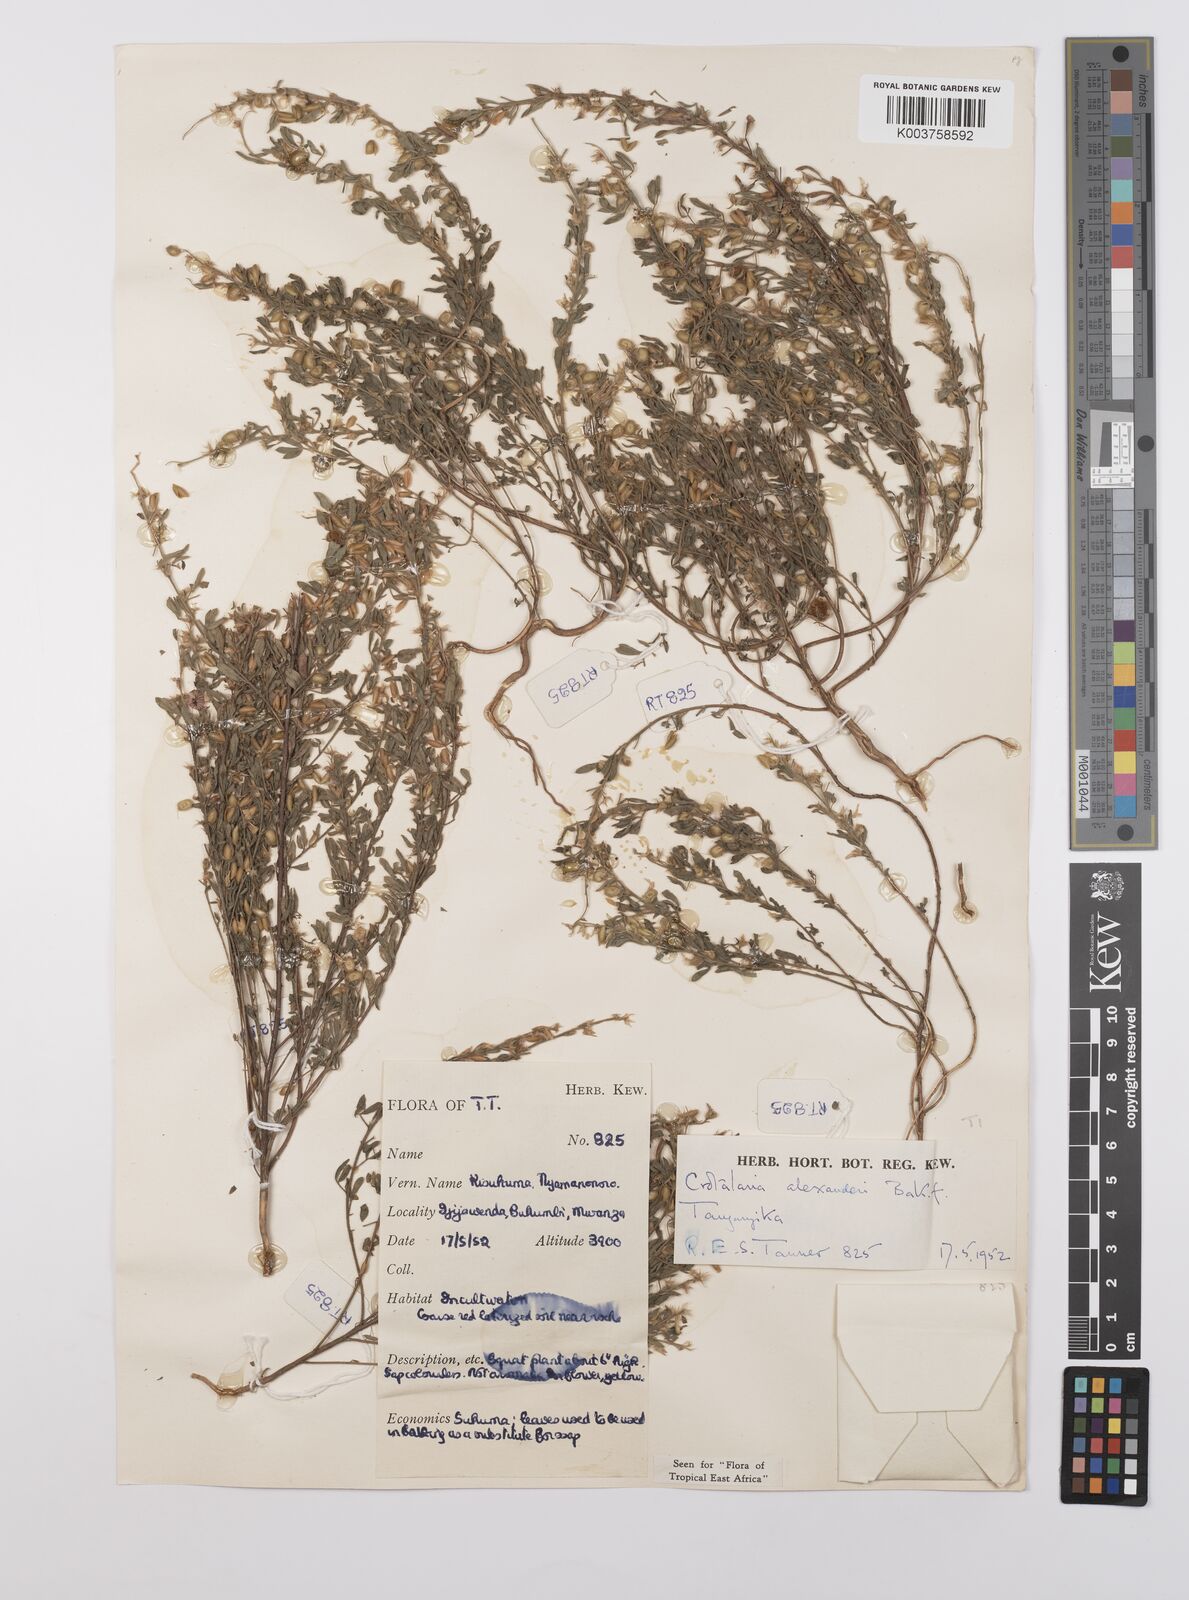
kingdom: Plantae
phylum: Tracheophyta
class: Magnoliopsida
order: Fabales
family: Fabaceae
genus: Crotalaria
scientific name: Crotalaria alexandri
